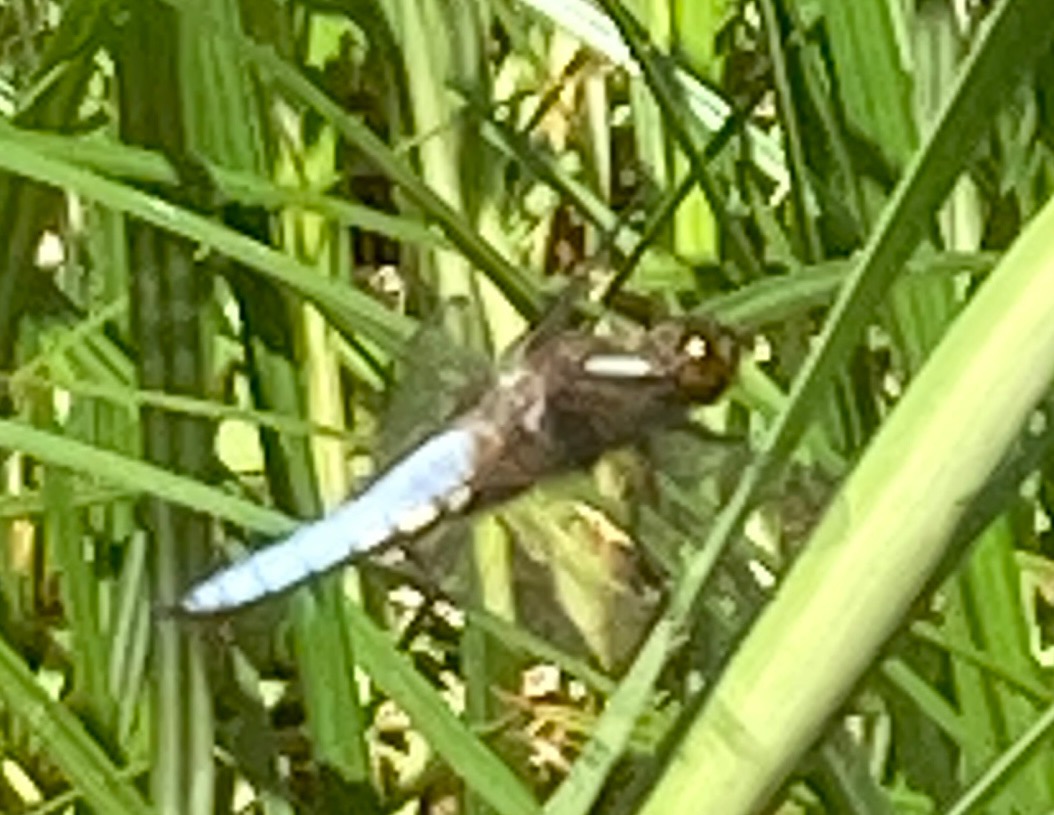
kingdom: Animalia
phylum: Arthropoda
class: Insecta
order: Odonata
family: Libellulidae
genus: Libellula
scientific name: Libellula depressa
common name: Blå libel
